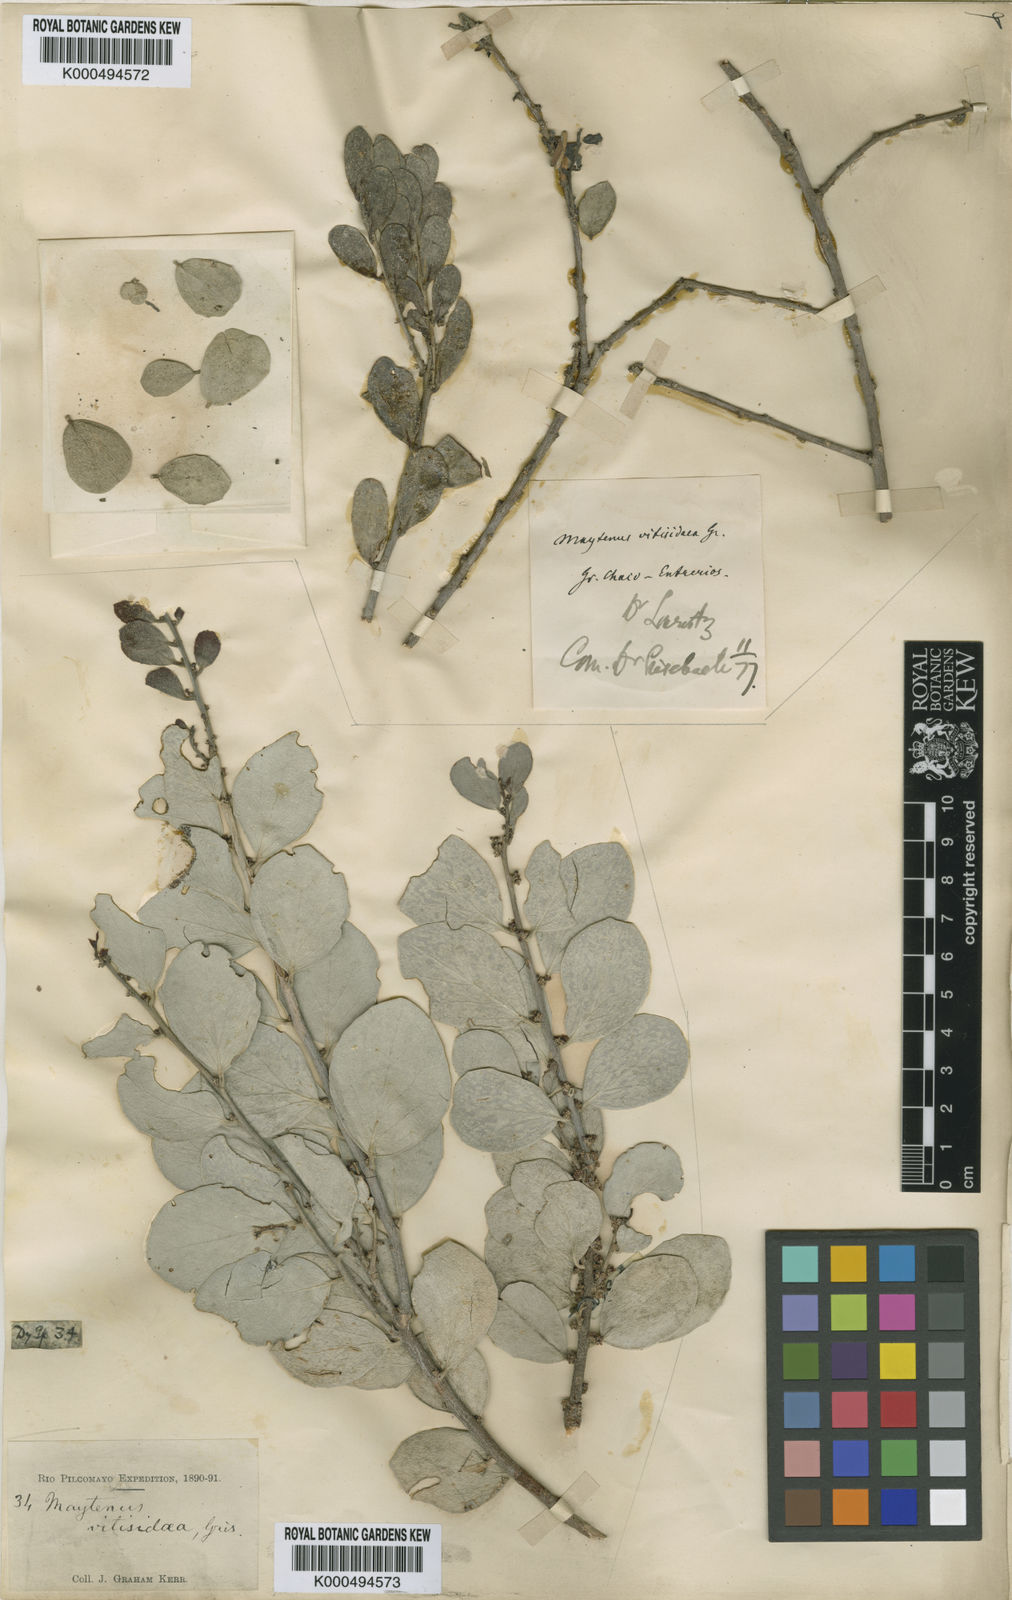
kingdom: Plantae
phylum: Tracheophyta
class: Magnoliopsida
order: Celastrales
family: Celastraceae
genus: Tricerma
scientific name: Tricerma vitis-idaeum
